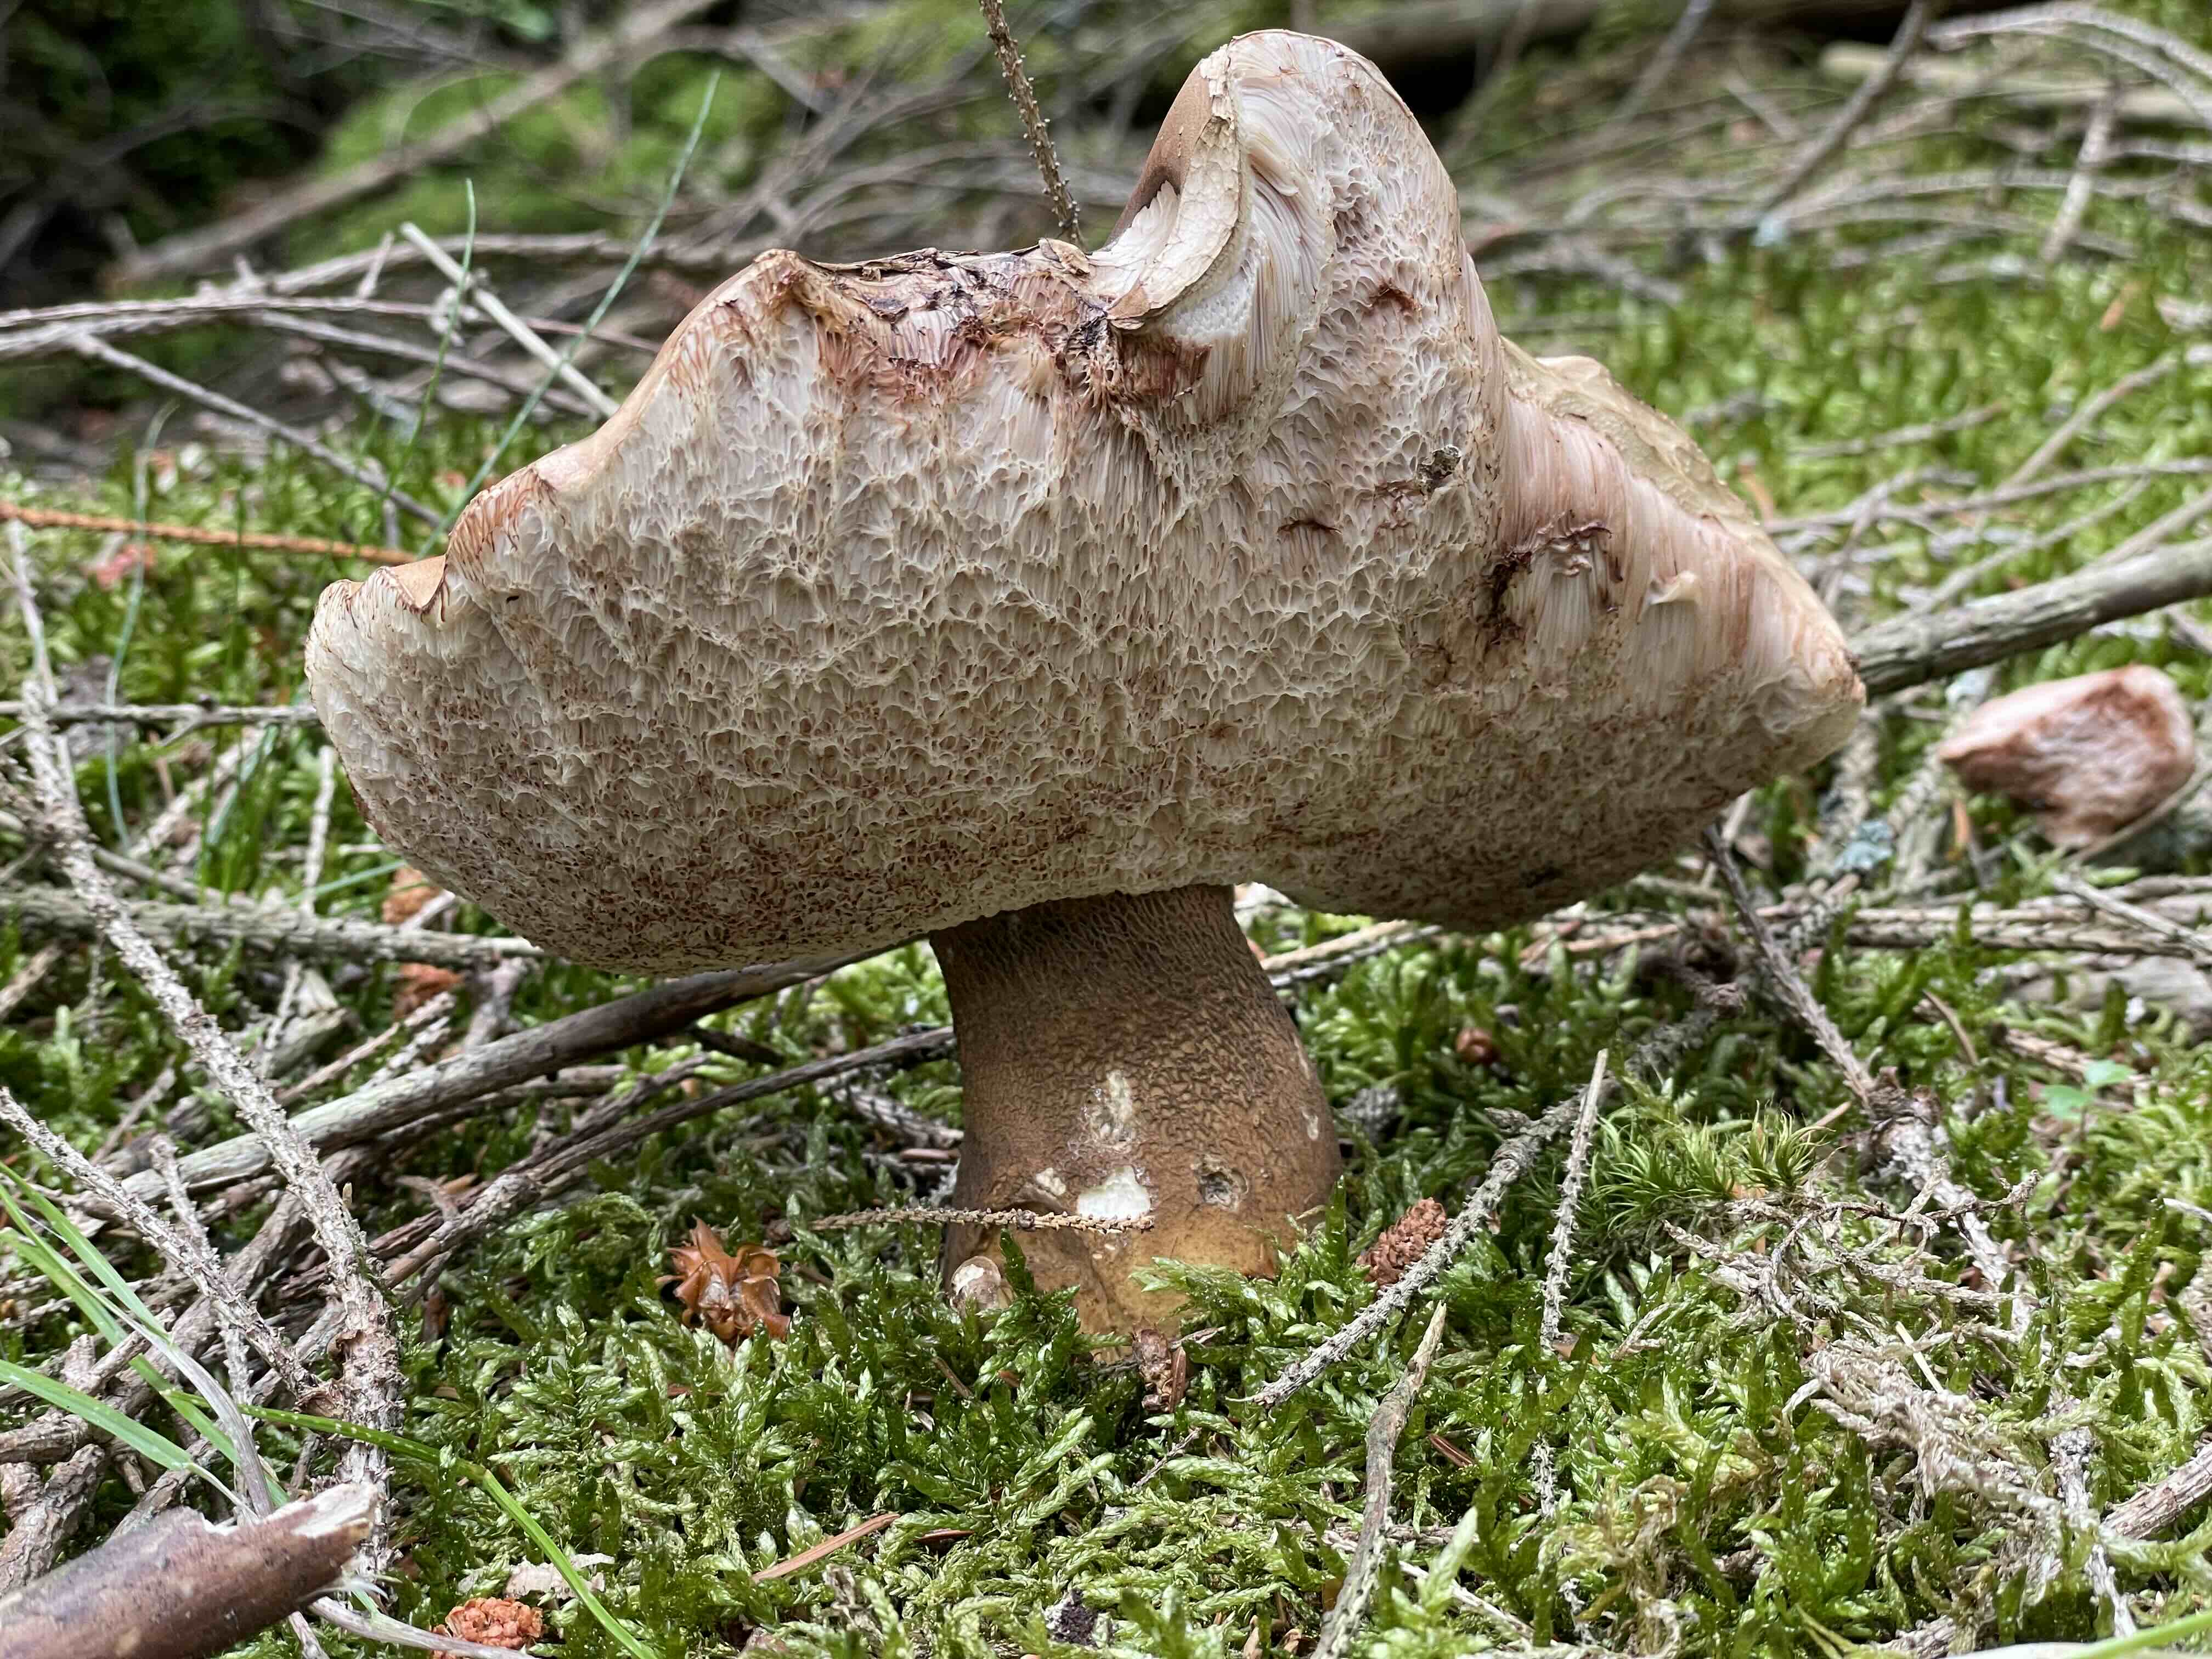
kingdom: Fungi
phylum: Basidiomycota
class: Agaricomycetes
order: Boletales
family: Boletaceae
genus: Tylopilus
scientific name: Tylopilus felleus
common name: galderørhat
